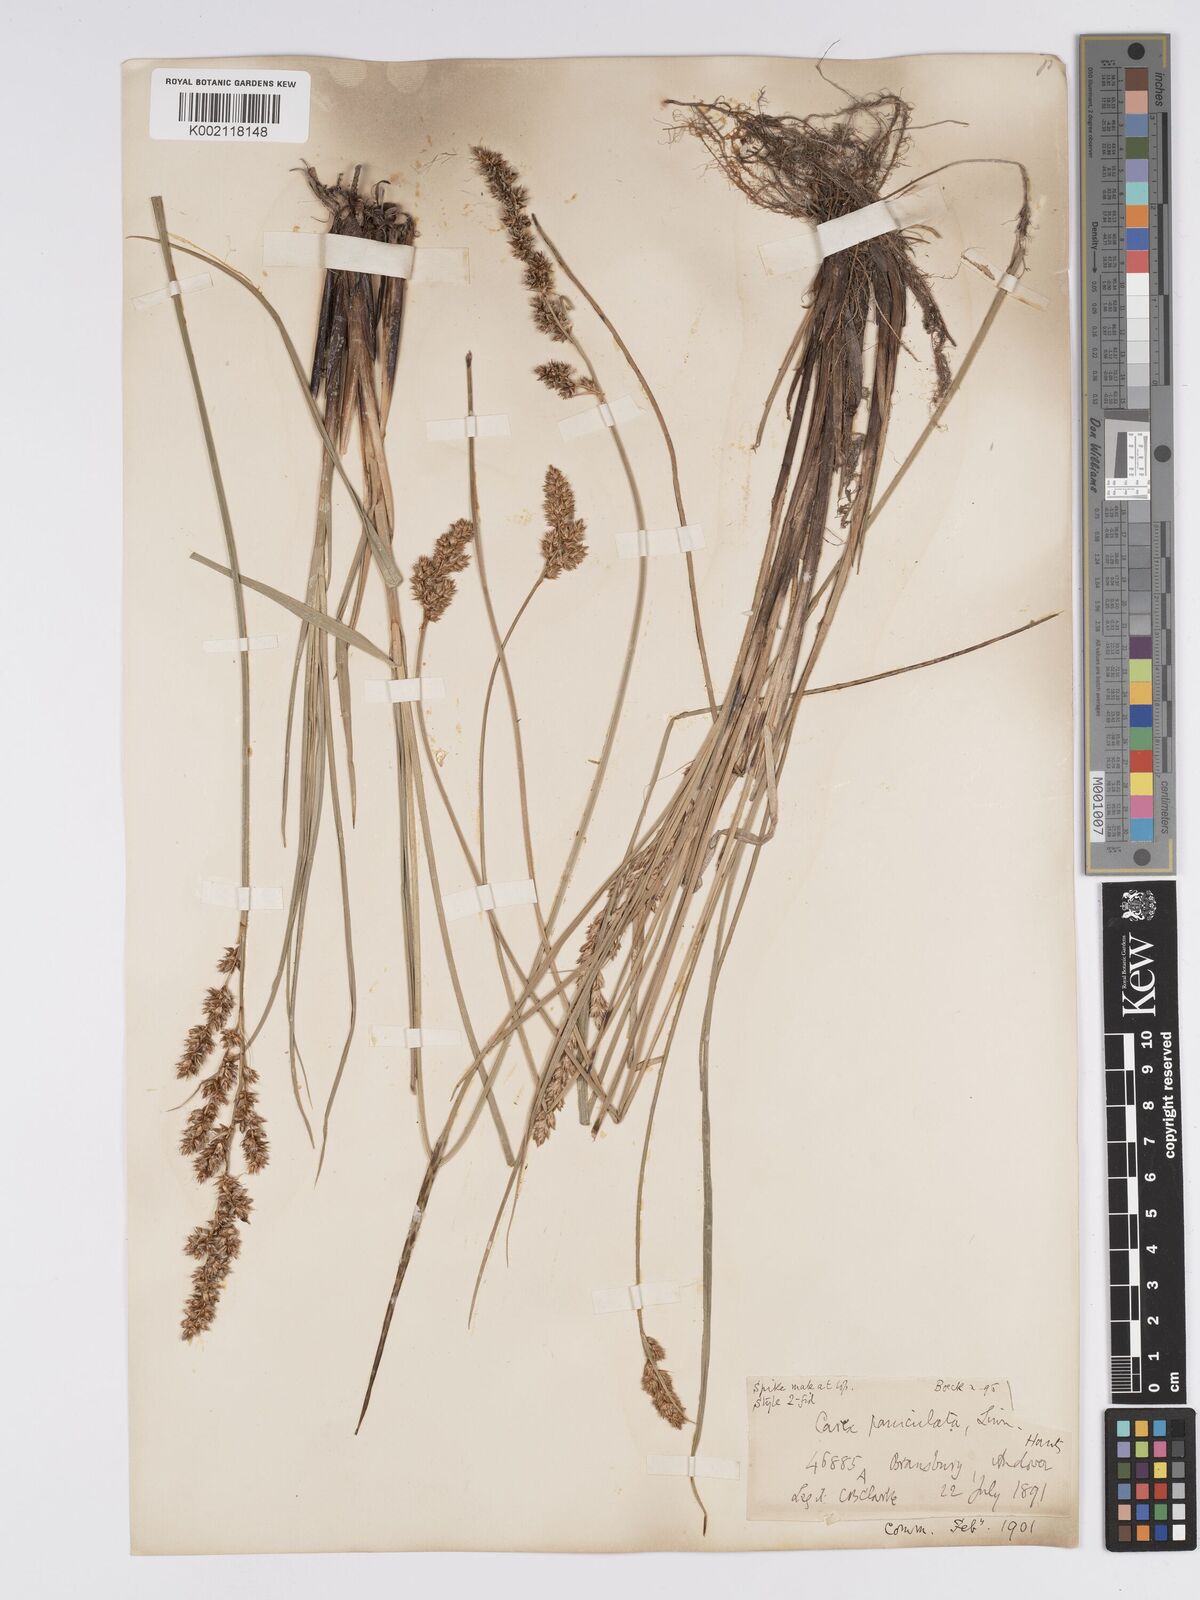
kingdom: Plantae
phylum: Tracheophyta
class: Liliopsida
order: Poales
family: Cyperaceae
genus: Carex
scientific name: Carex paniculata
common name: Greater tussock-sedge
